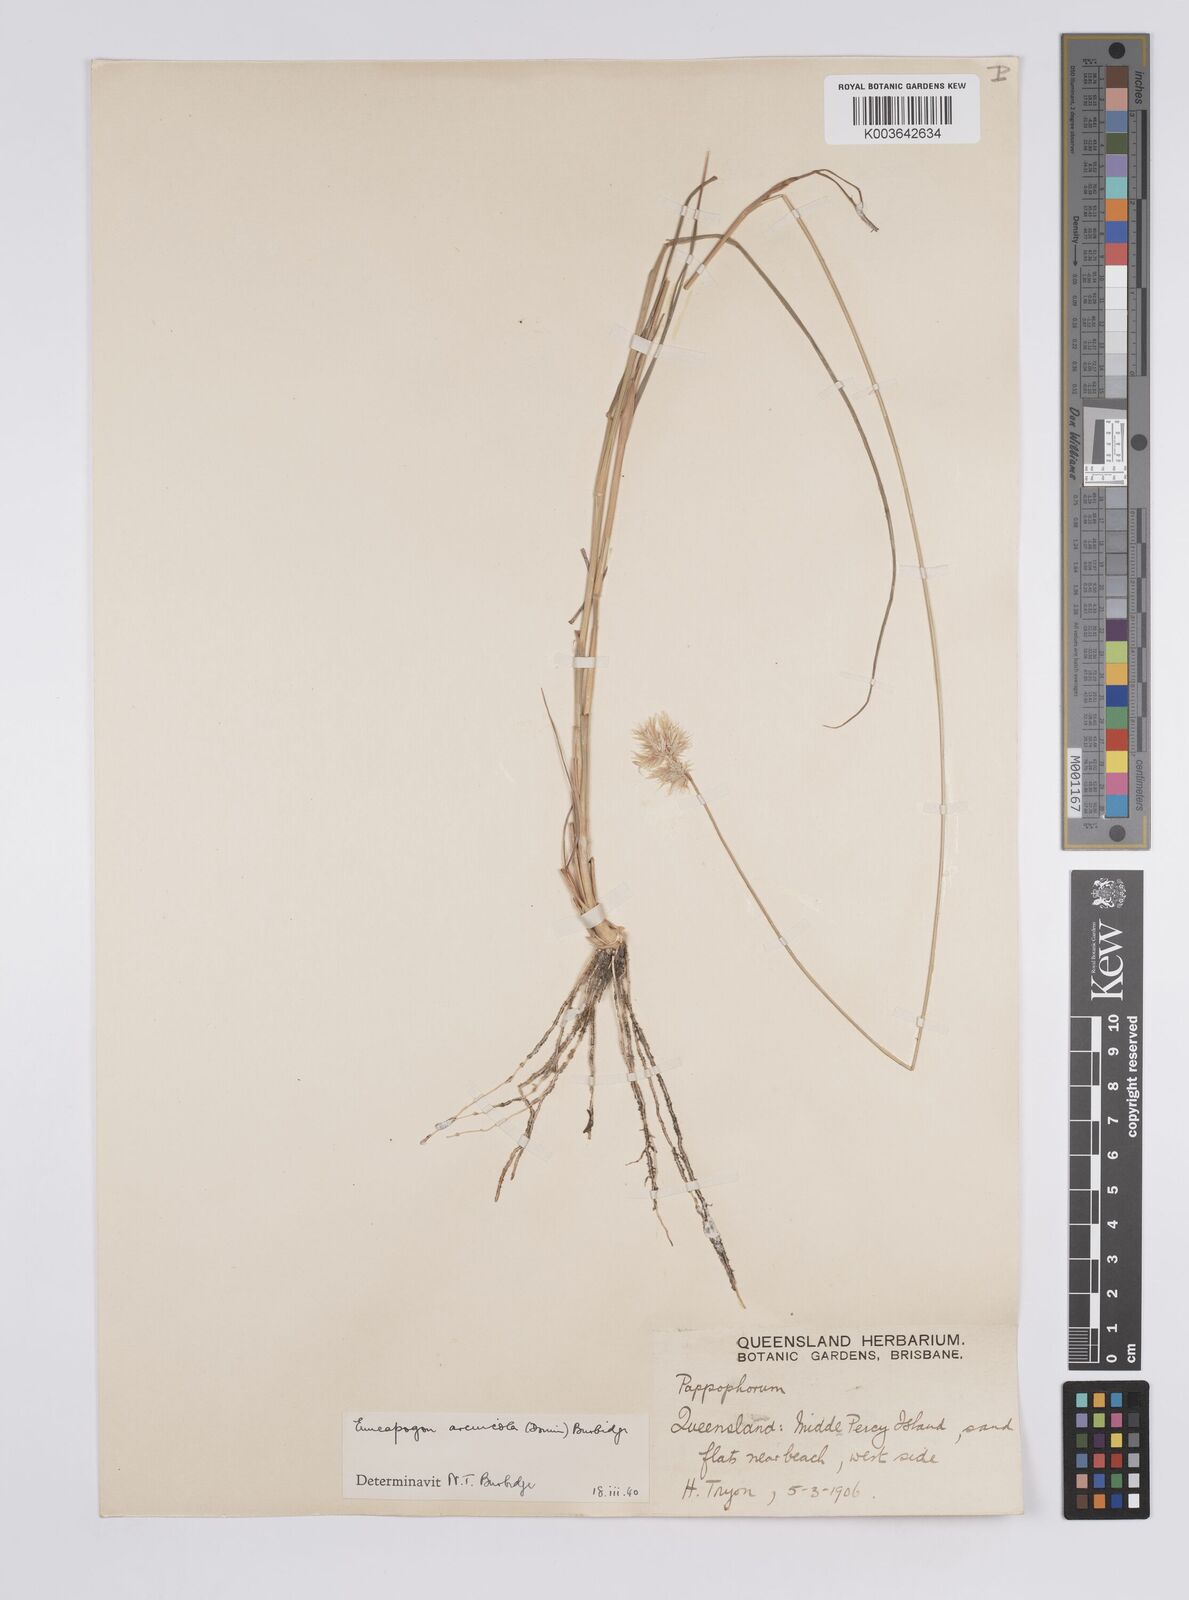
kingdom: Plantae
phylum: Tracheophyta
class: Liliopsida
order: Poales
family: Poaceae
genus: Enneapogon
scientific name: Enneapogon nigricans
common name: Pappus grass
